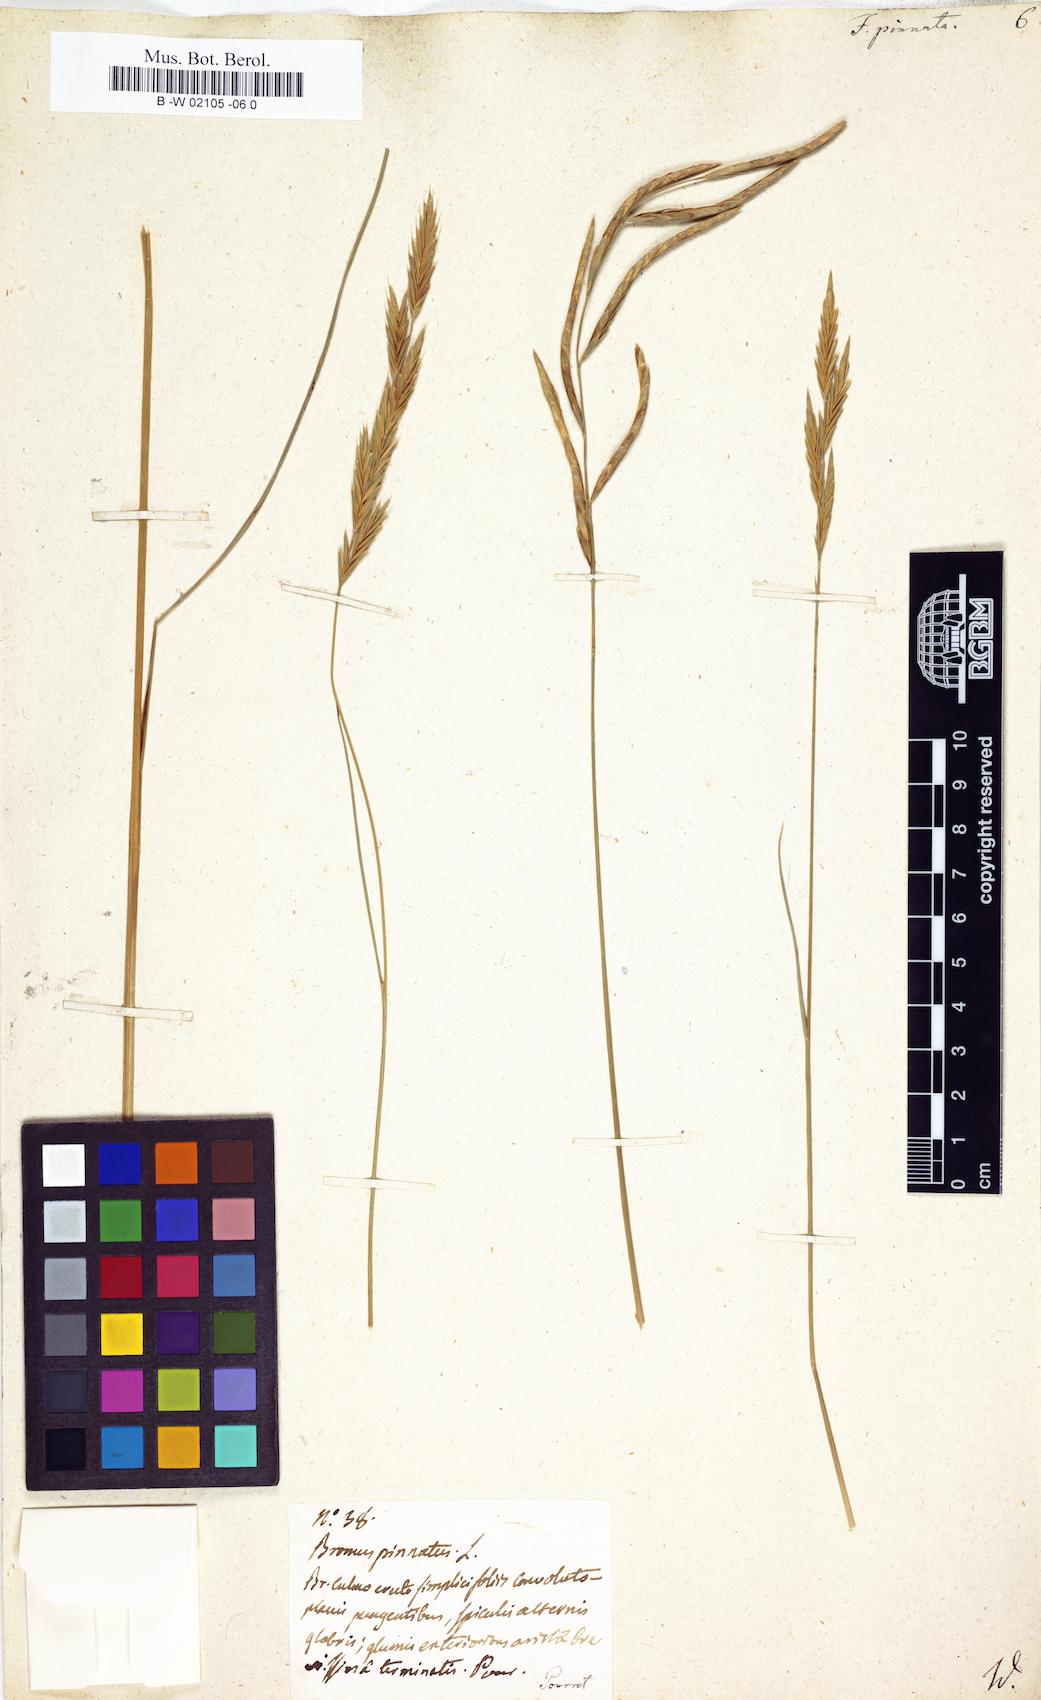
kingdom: Plantae
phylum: Tracheophyta
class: Liliopsida
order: Poales
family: Poaceae
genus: Brachypodium
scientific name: Brachypodium pinnatum
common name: Tor grass
